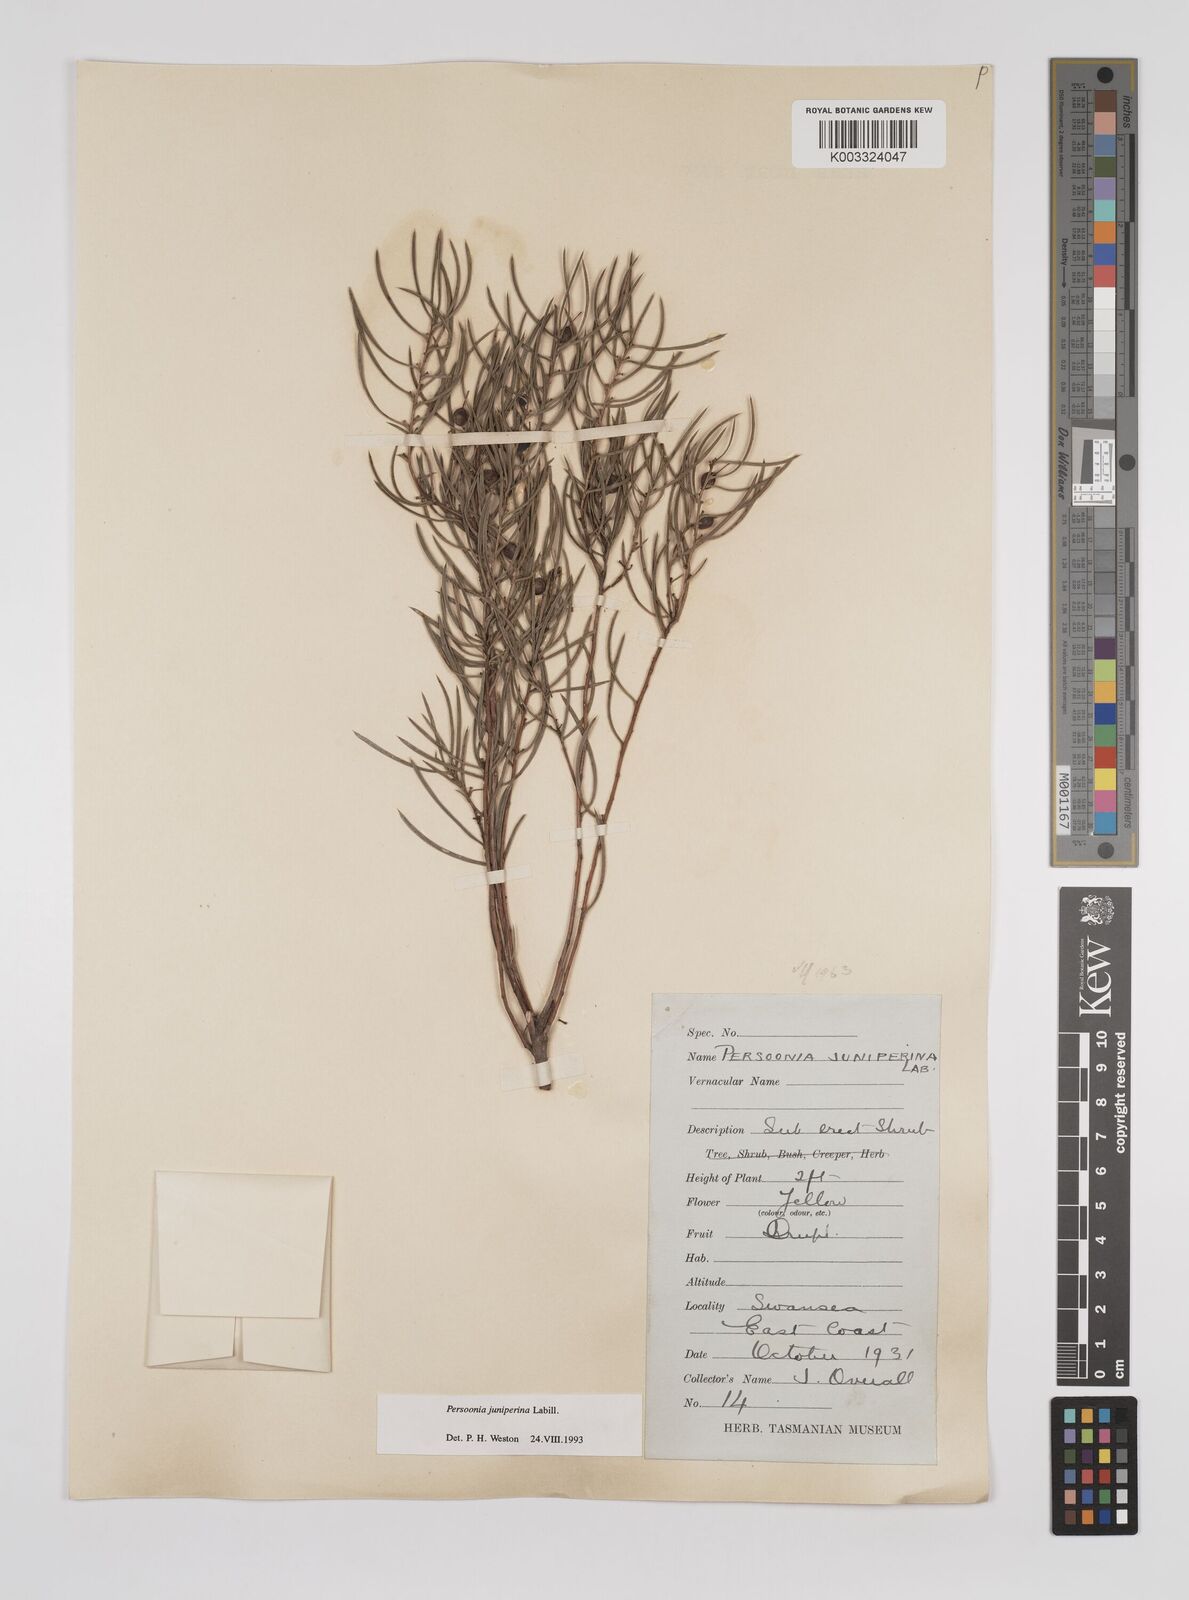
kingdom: Plantae
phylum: Tracheophyta
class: Magnoliopsida
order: Proteales
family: Proteaceae
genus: Persoonia
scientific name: Persoonia juniperina
